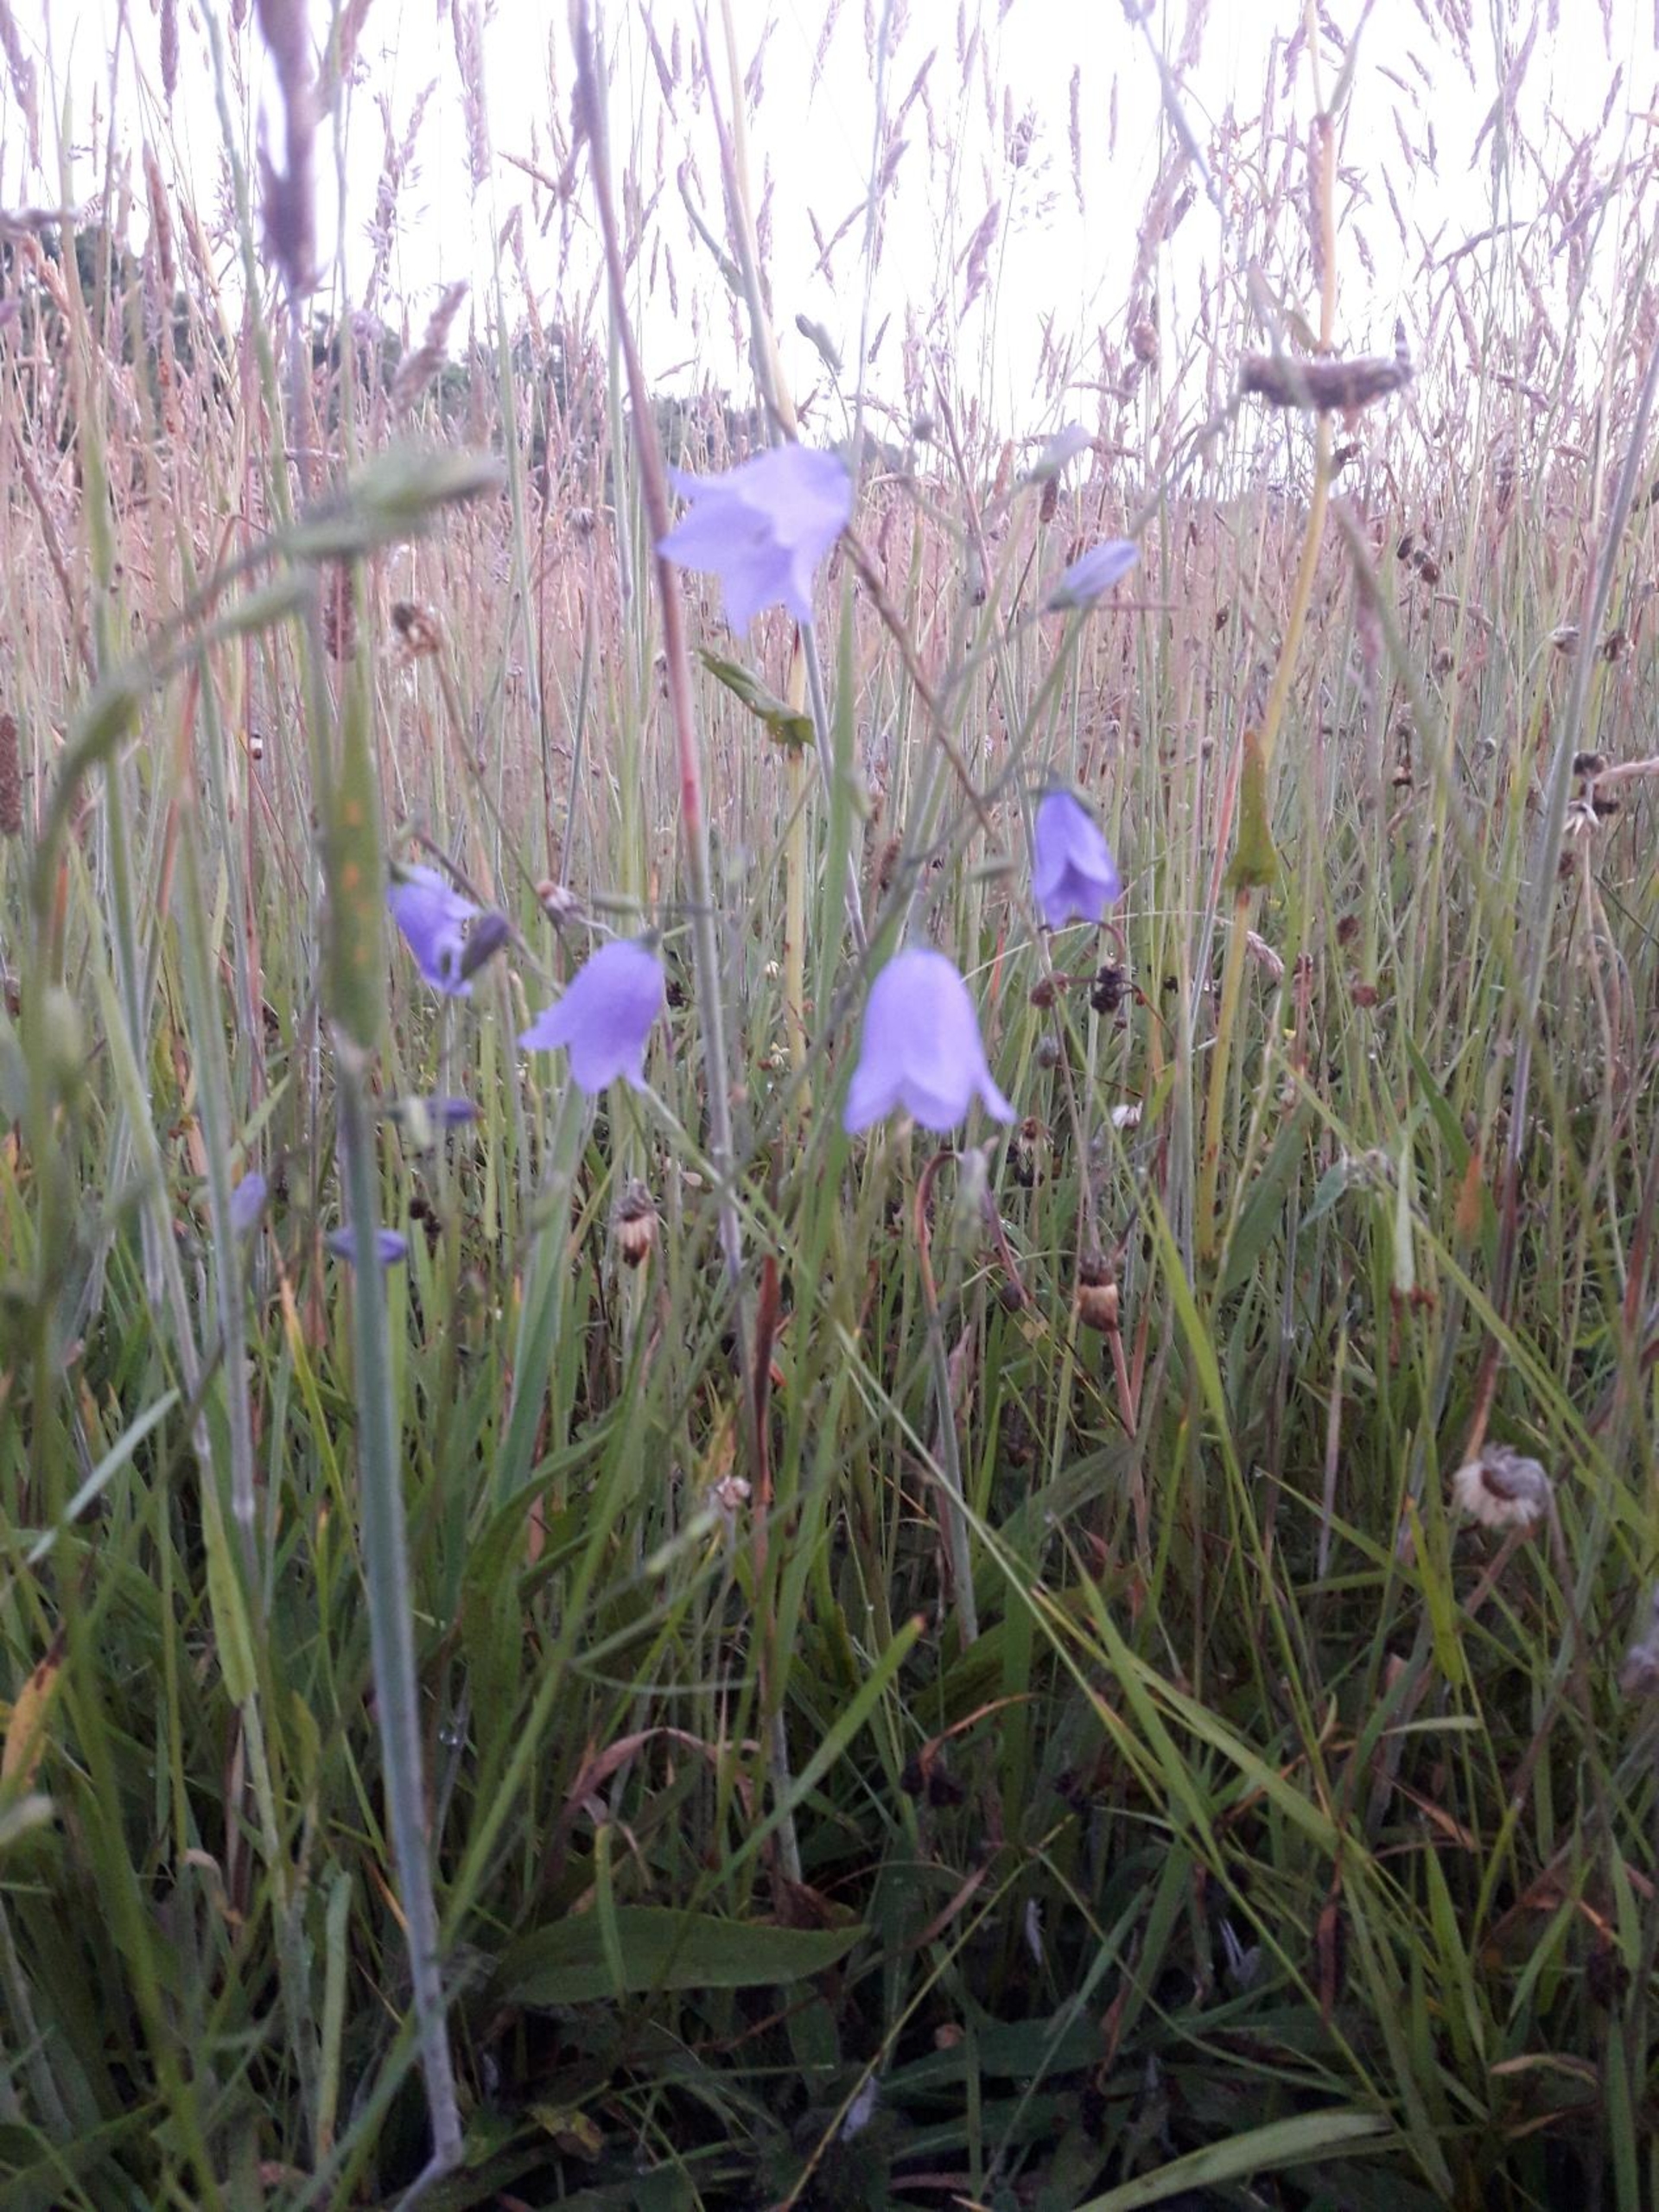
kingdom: Plantae
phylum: Tracheophyta
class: Magnoliopsida
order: Asterales
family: Campanulaceae
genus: Campanula
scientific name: Campanula rotundifolia
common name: Liden klokke
